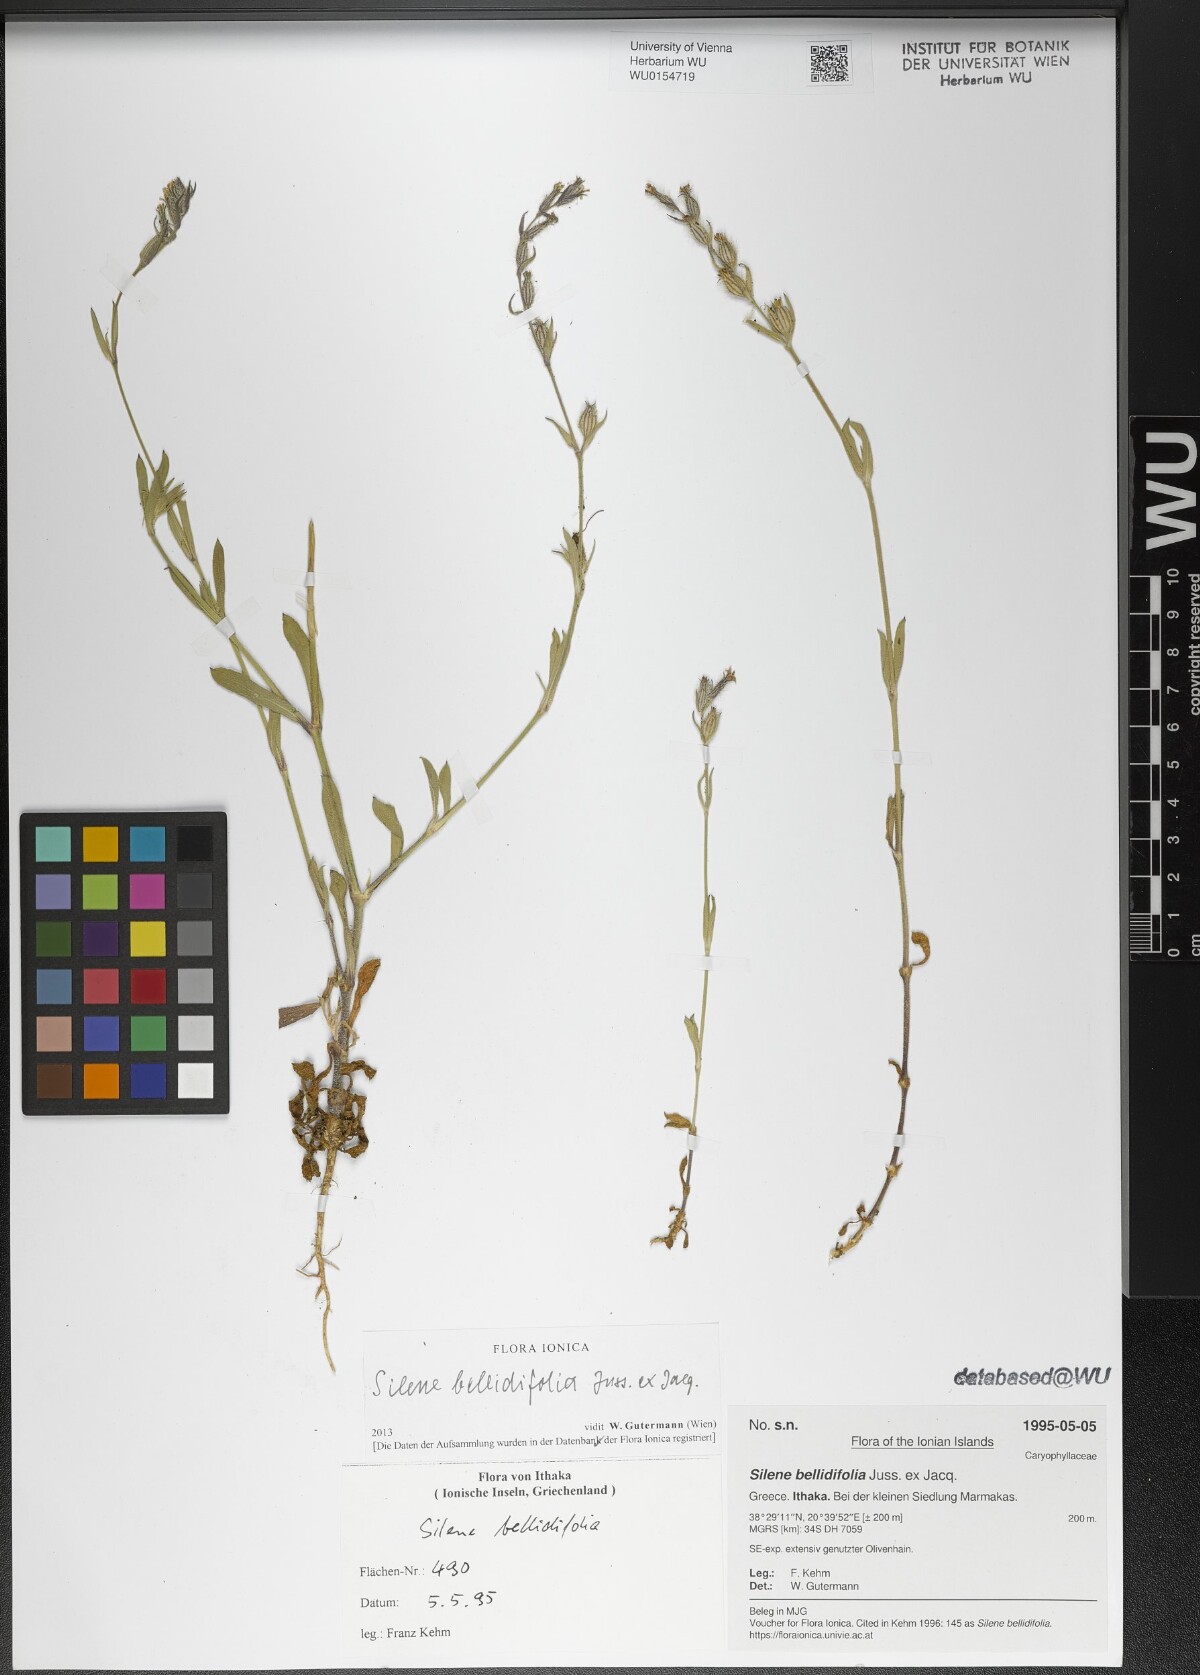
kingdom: Plantae
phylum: Tracheophyta
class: Magnoliopsida
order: Caryophyllales
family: Caryophyllaceae
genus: Silene
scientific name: Silene bellidifolia
